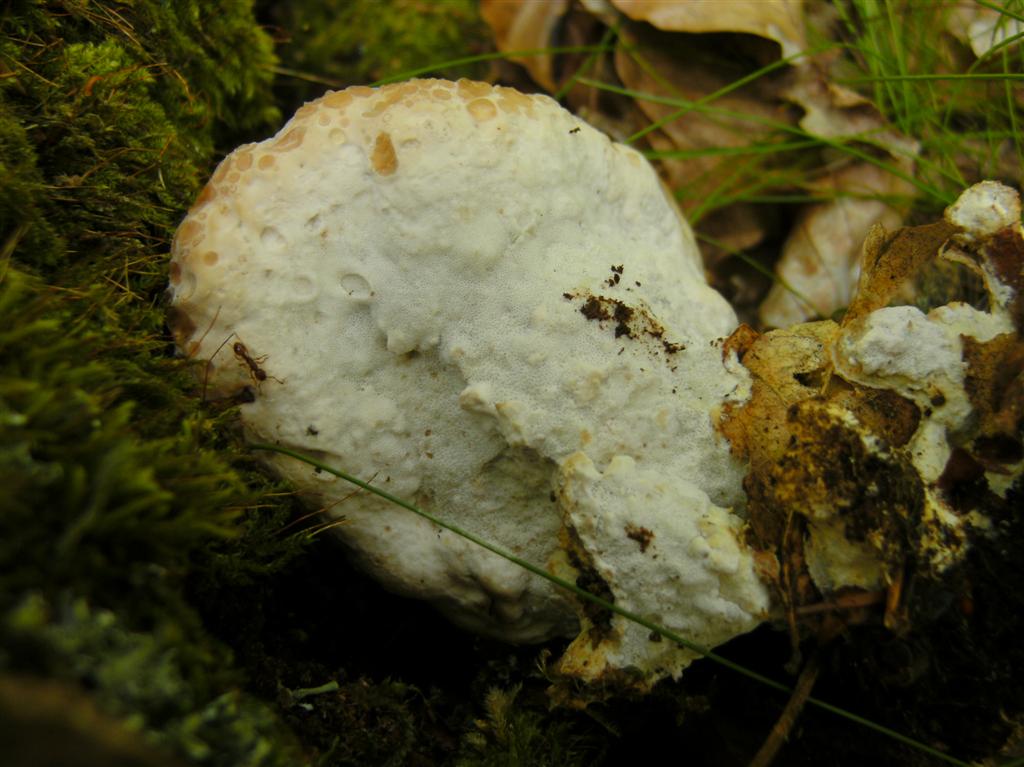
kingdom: Fungi
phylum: Basidiomycota
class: Agaricomycetes
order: Polyporales
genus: Calcipostia
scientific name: Calcipostia guttulata
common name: dråbe-kødporesvamp
